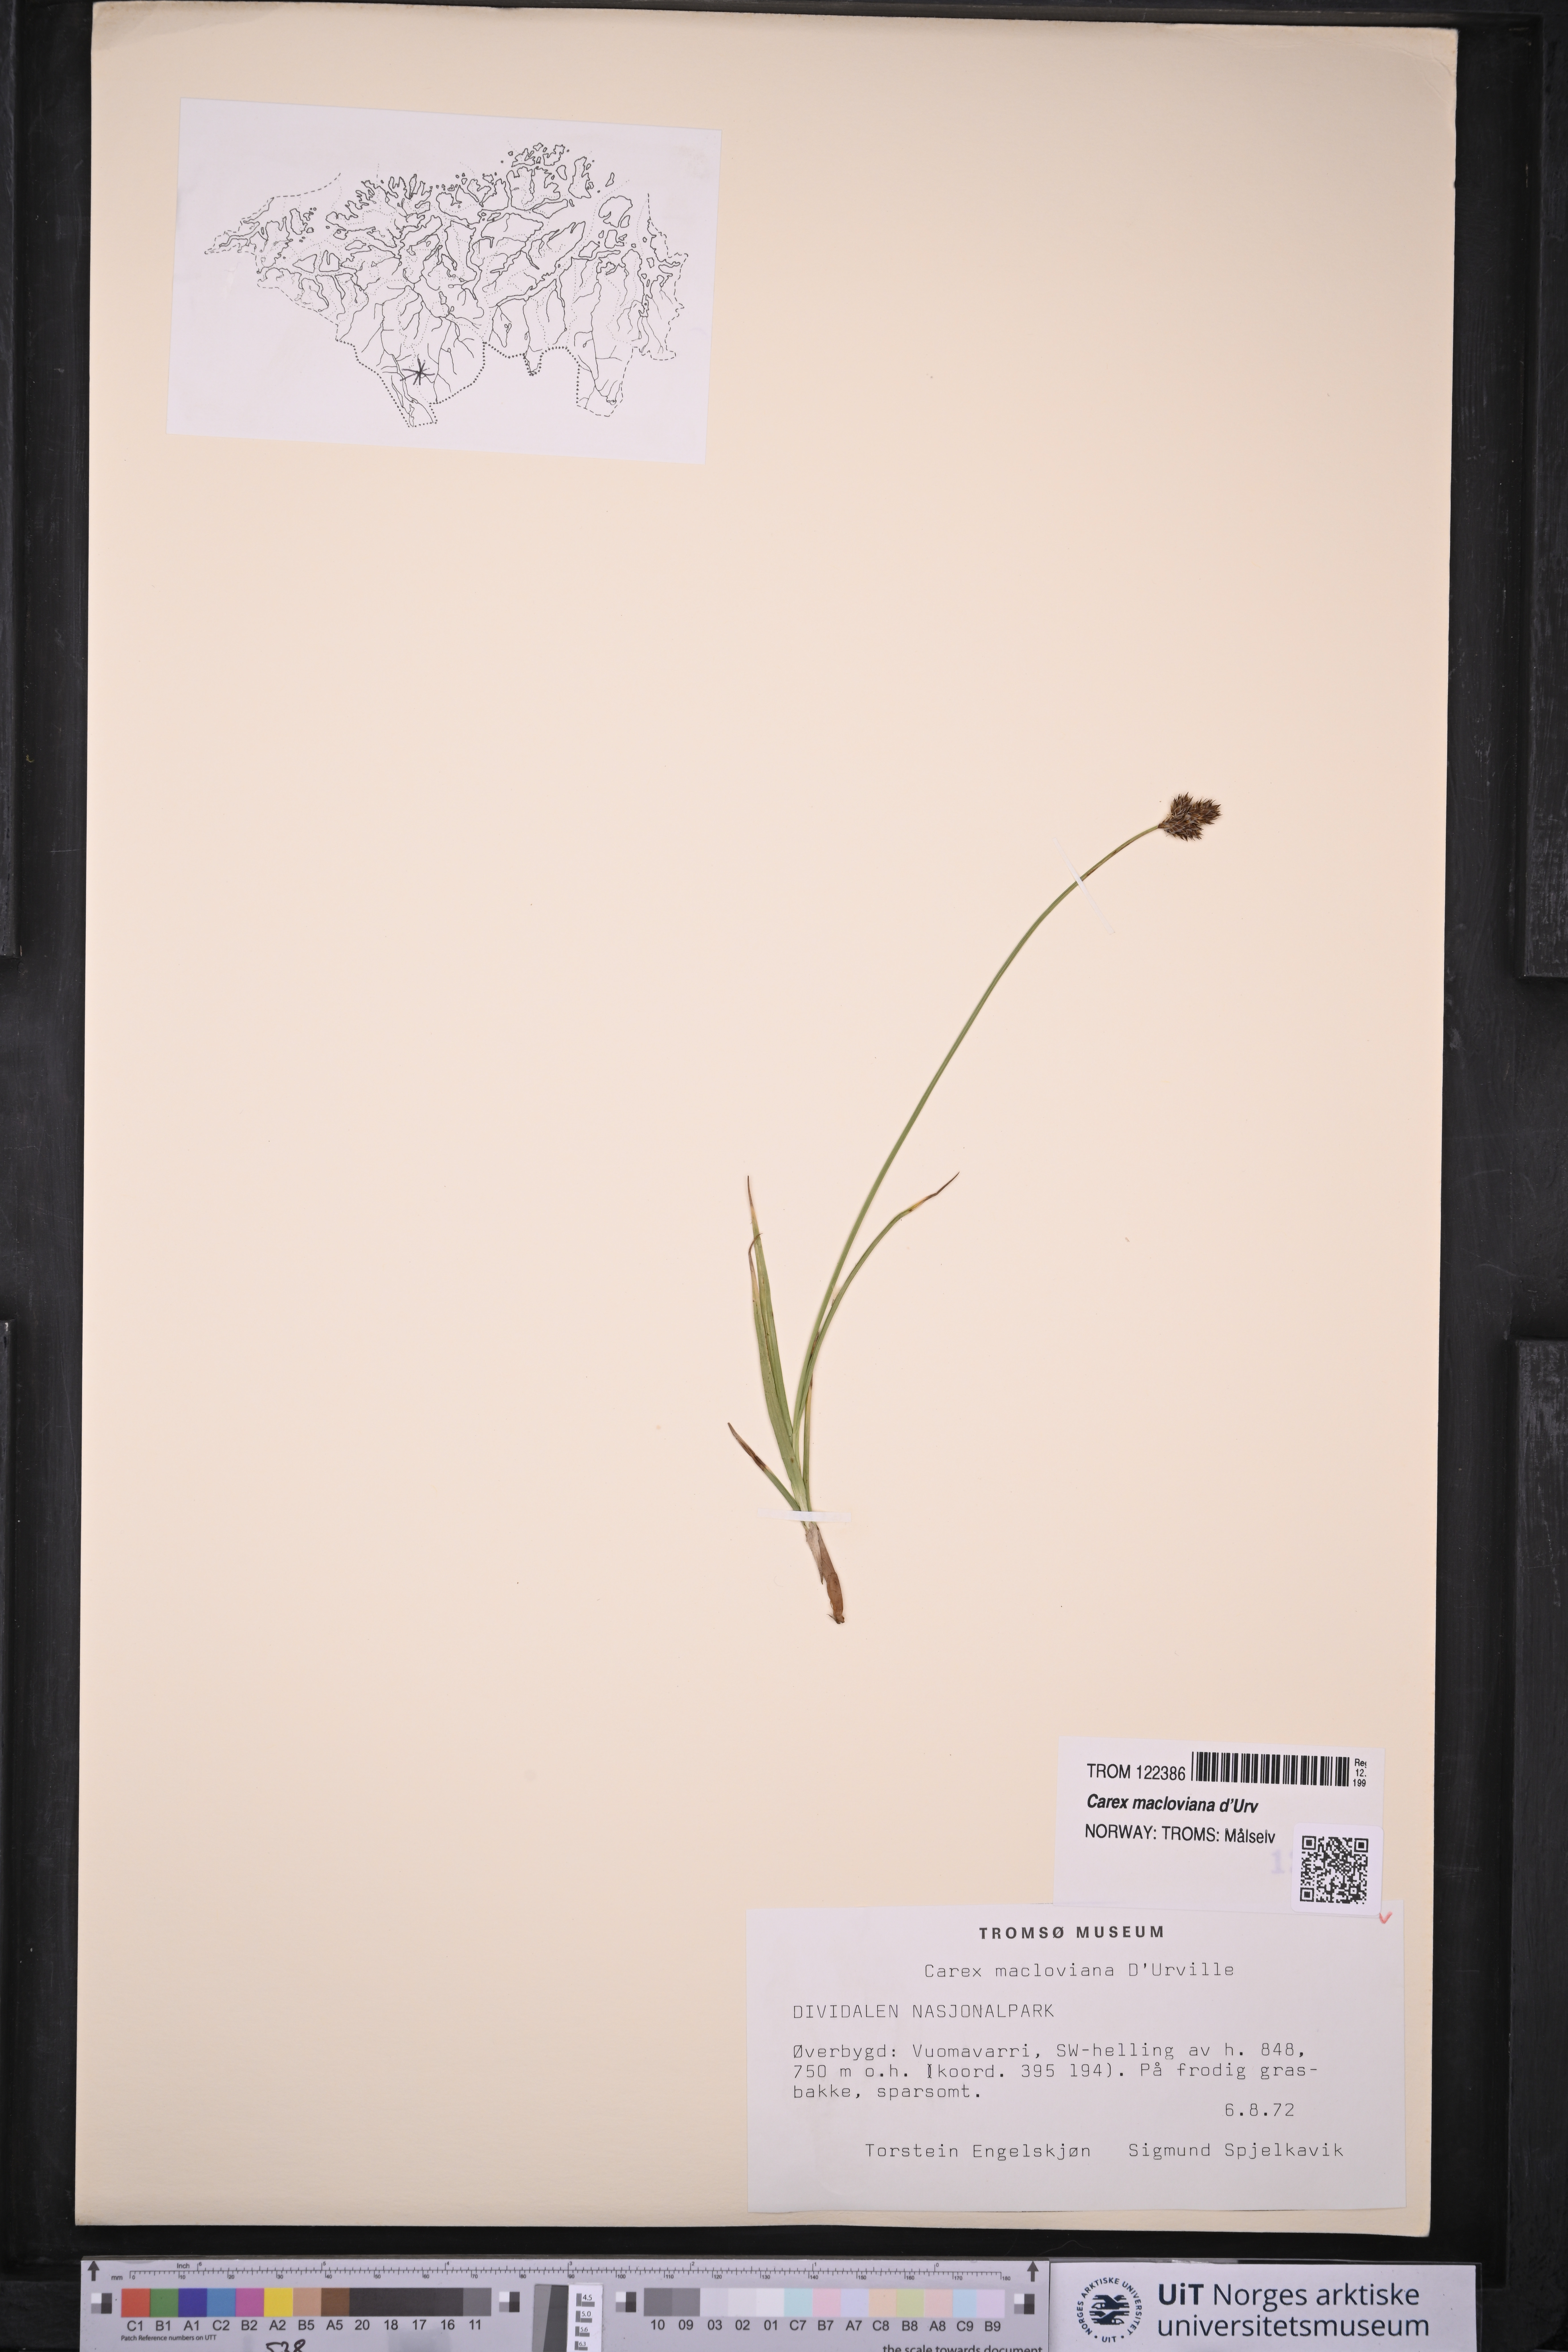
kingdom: Plantae
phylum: Tracheophyta
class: Liliopsida
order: Poales
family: Cyperaceae
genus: Carex
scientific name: Carex macloviana
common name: Falkland island sedge
